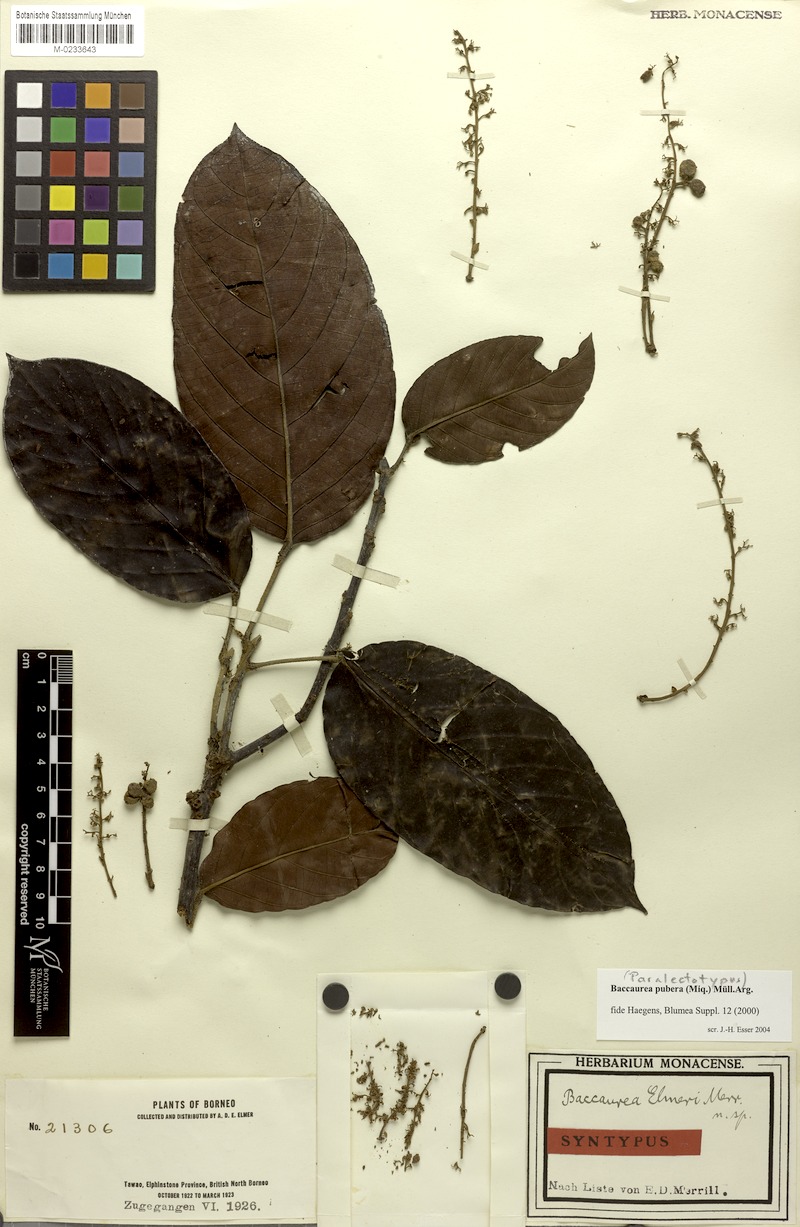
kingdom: Plantae
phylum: Tracheophyta
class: Magnoliopsida
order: Malpighiales
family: Phyllanthaceae
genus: Baccaurea
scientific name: Baccaurea pubera
